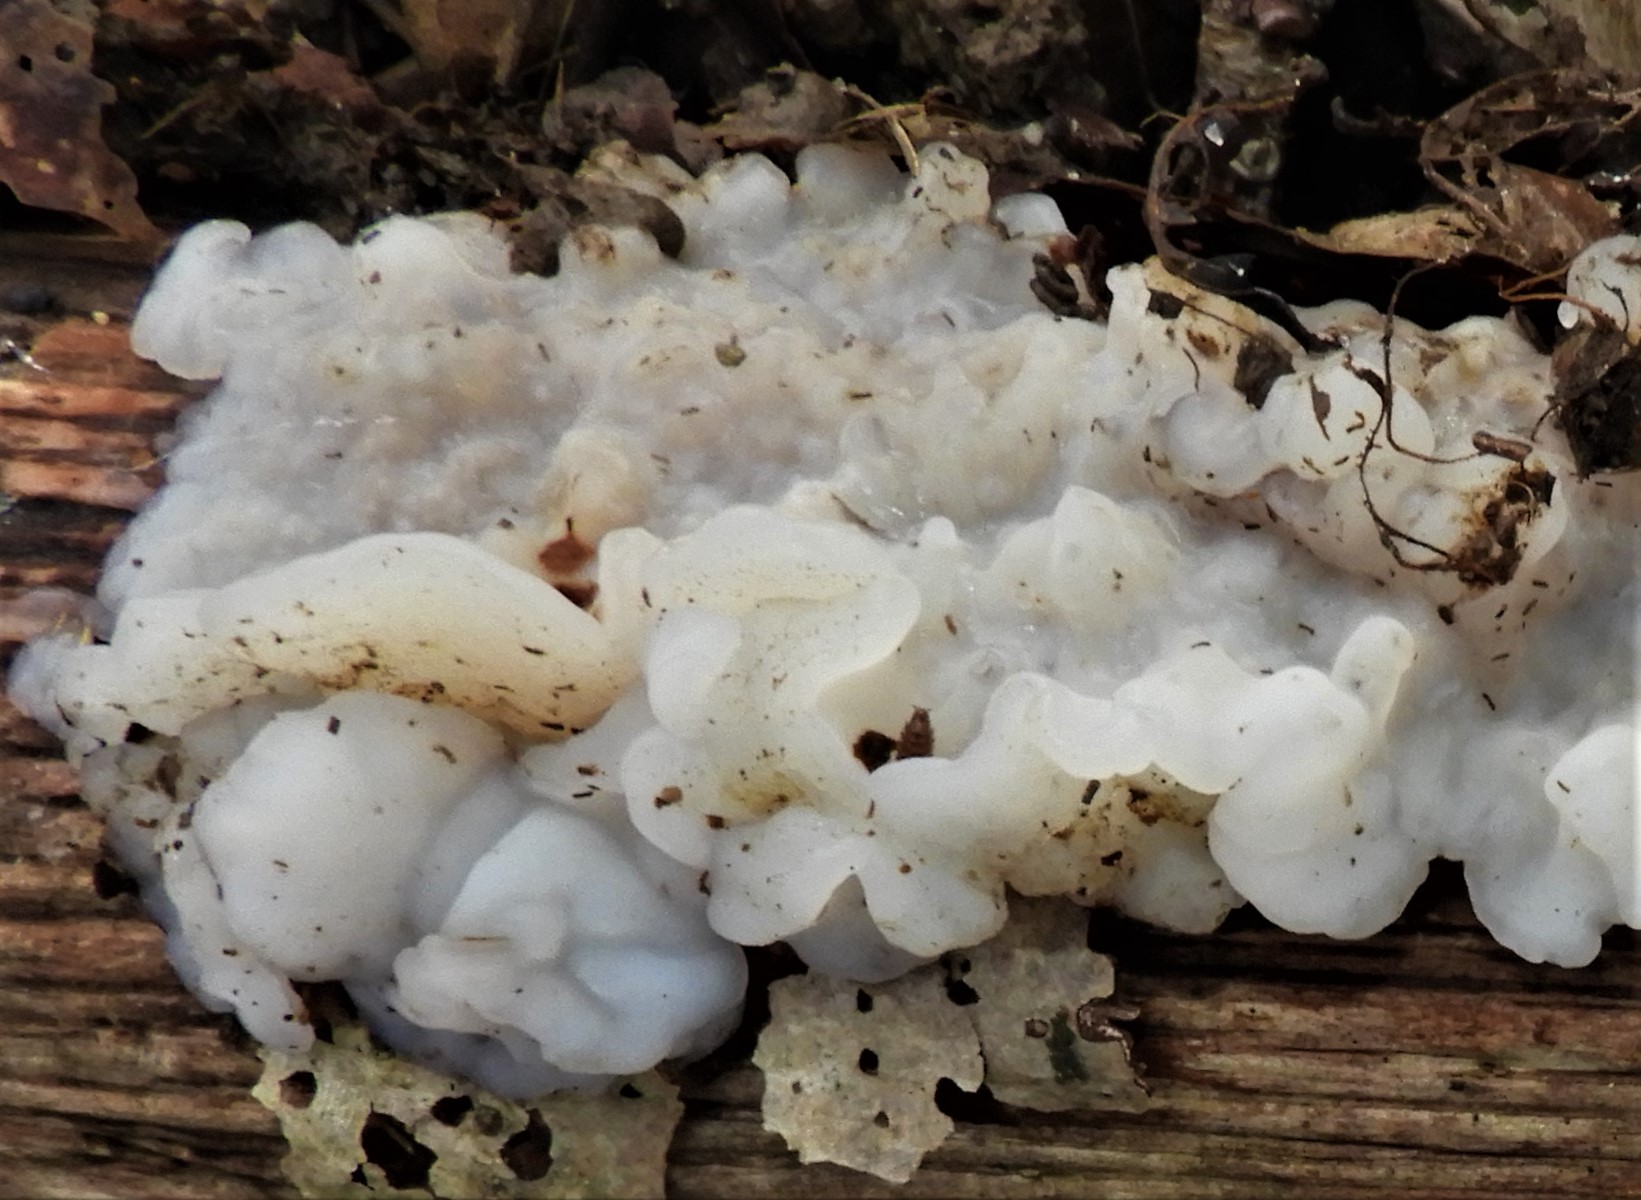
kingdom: Fungi
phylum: Basidiomycota
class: Agaricomycetes
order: Auriculariales
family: Auriculariaceae
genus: Exidia
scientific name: Exidia thuretiana
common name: hvidlig bævretop
